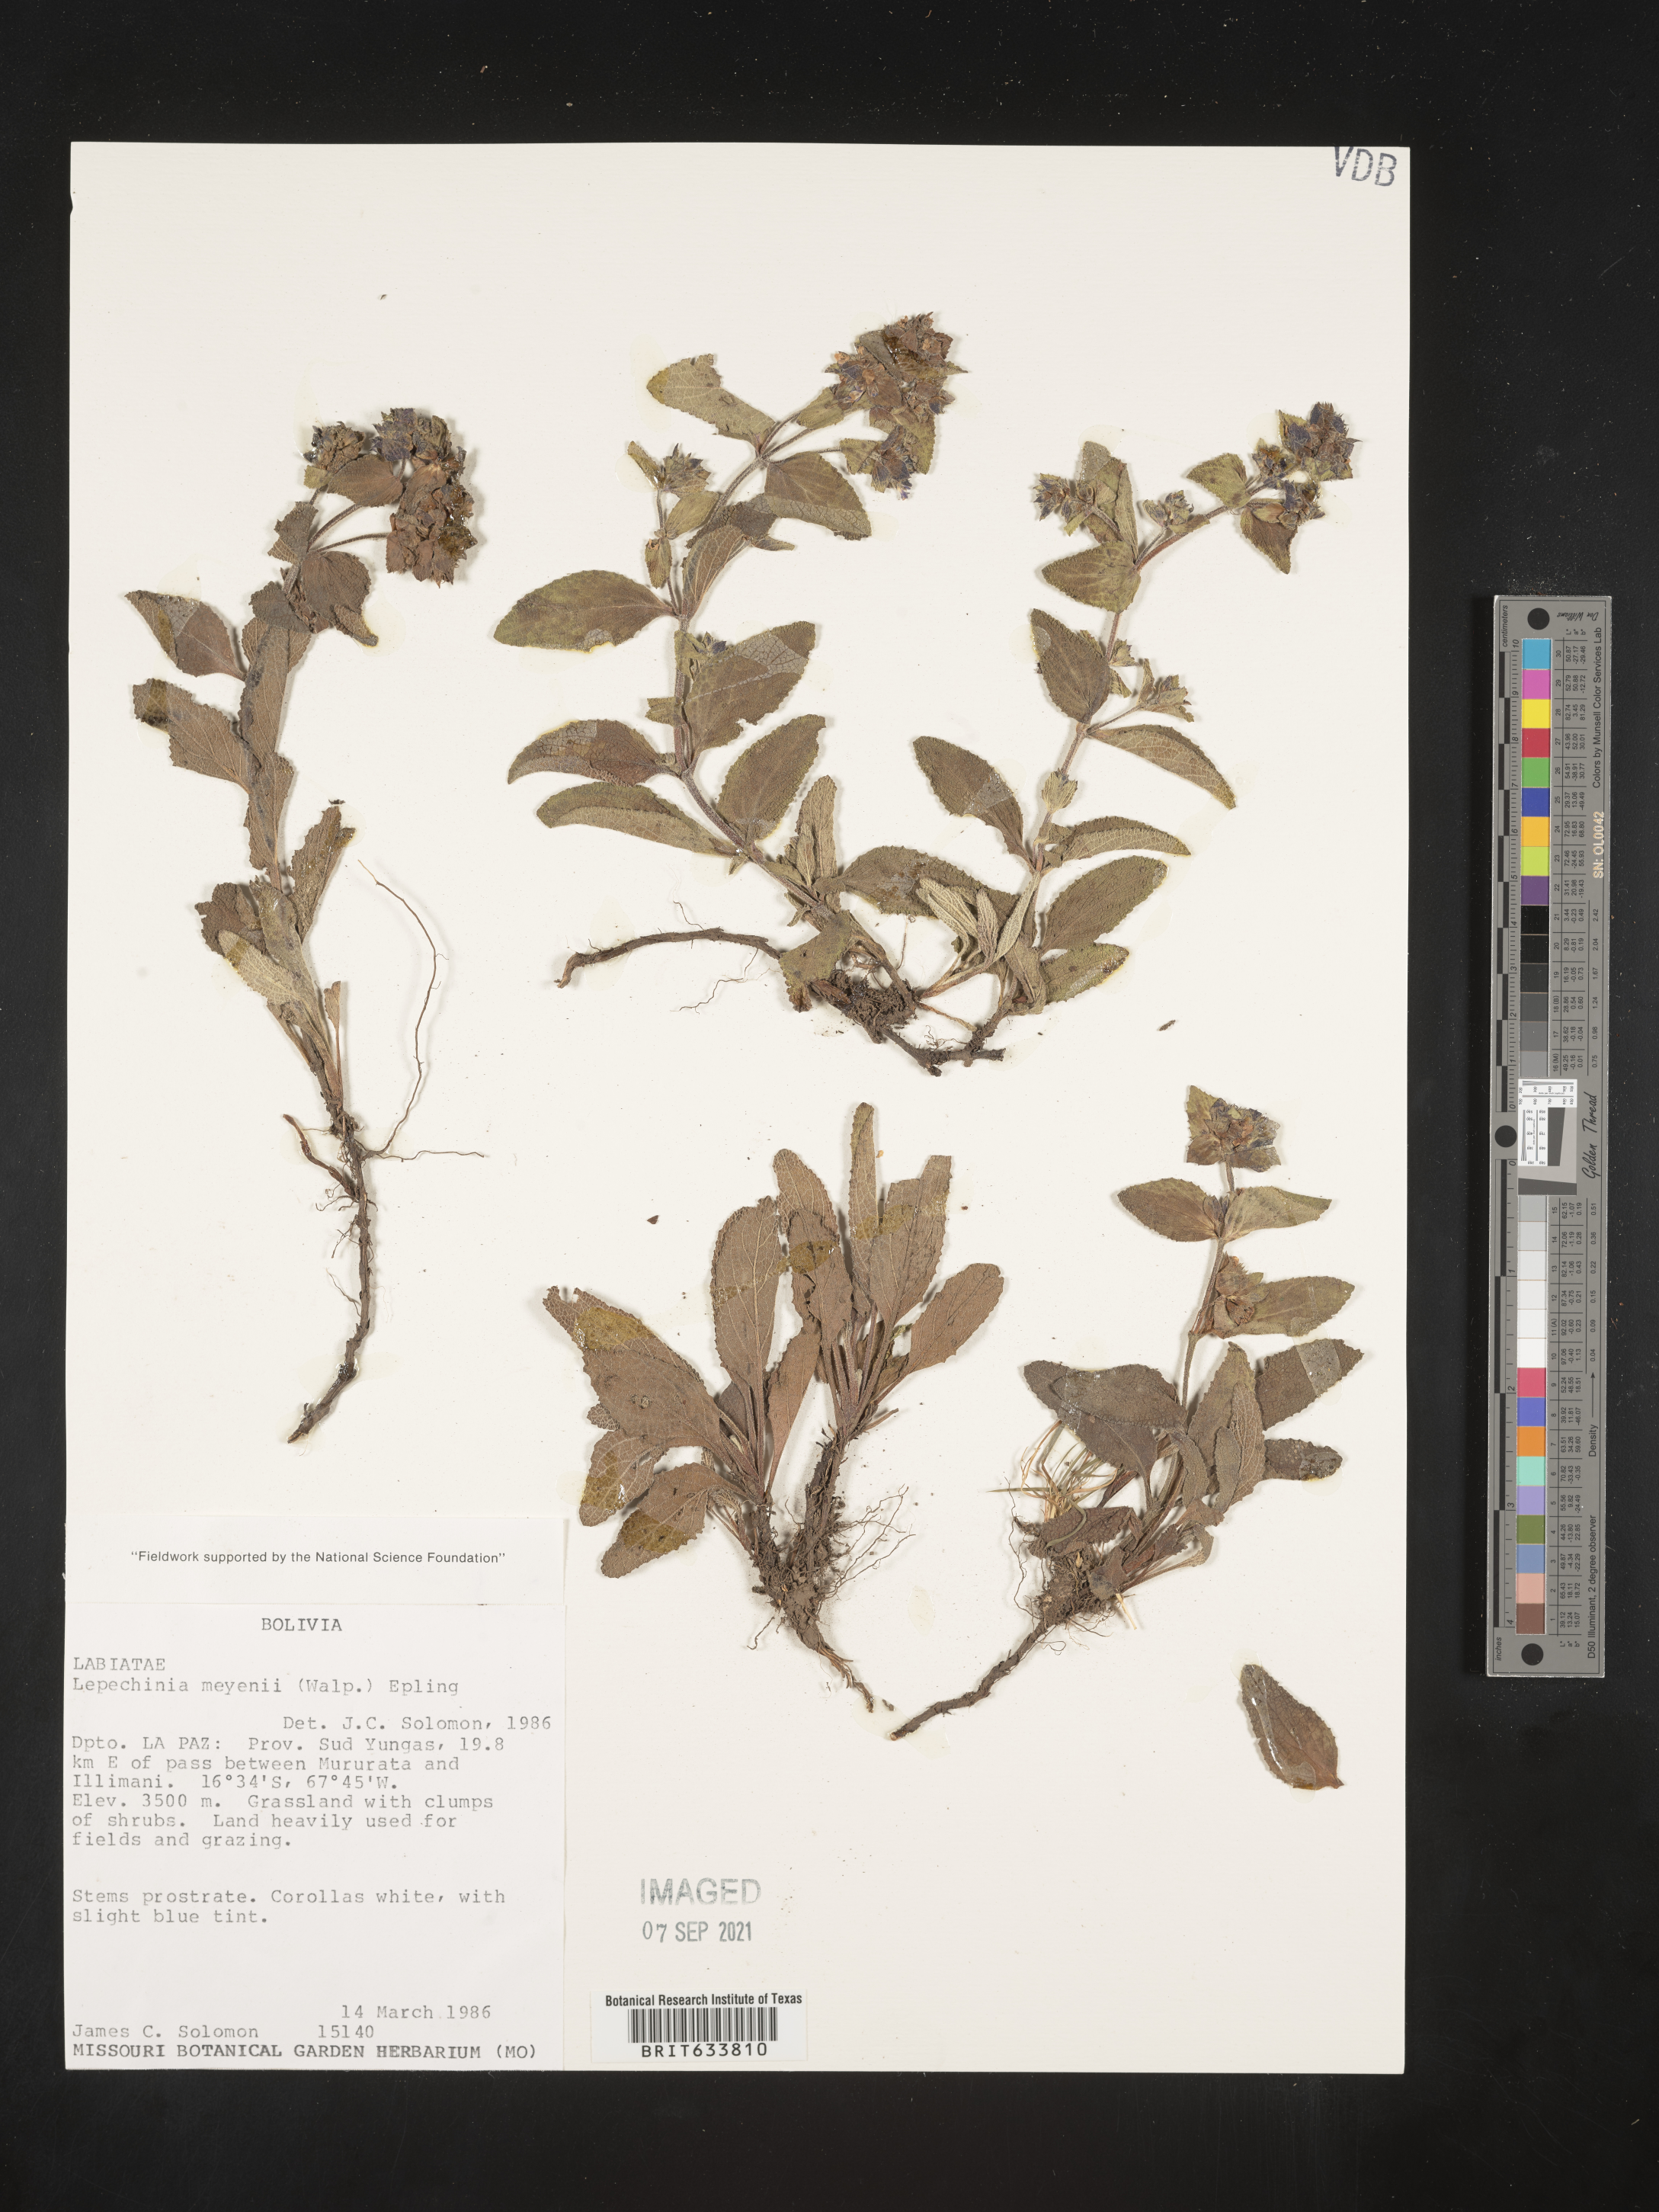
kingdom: Plantae
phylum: Tracheophyta
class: Magnoliopsida
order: Lamiales
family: Lamiaceae
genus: Lepechinia
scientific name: Lepechinia
